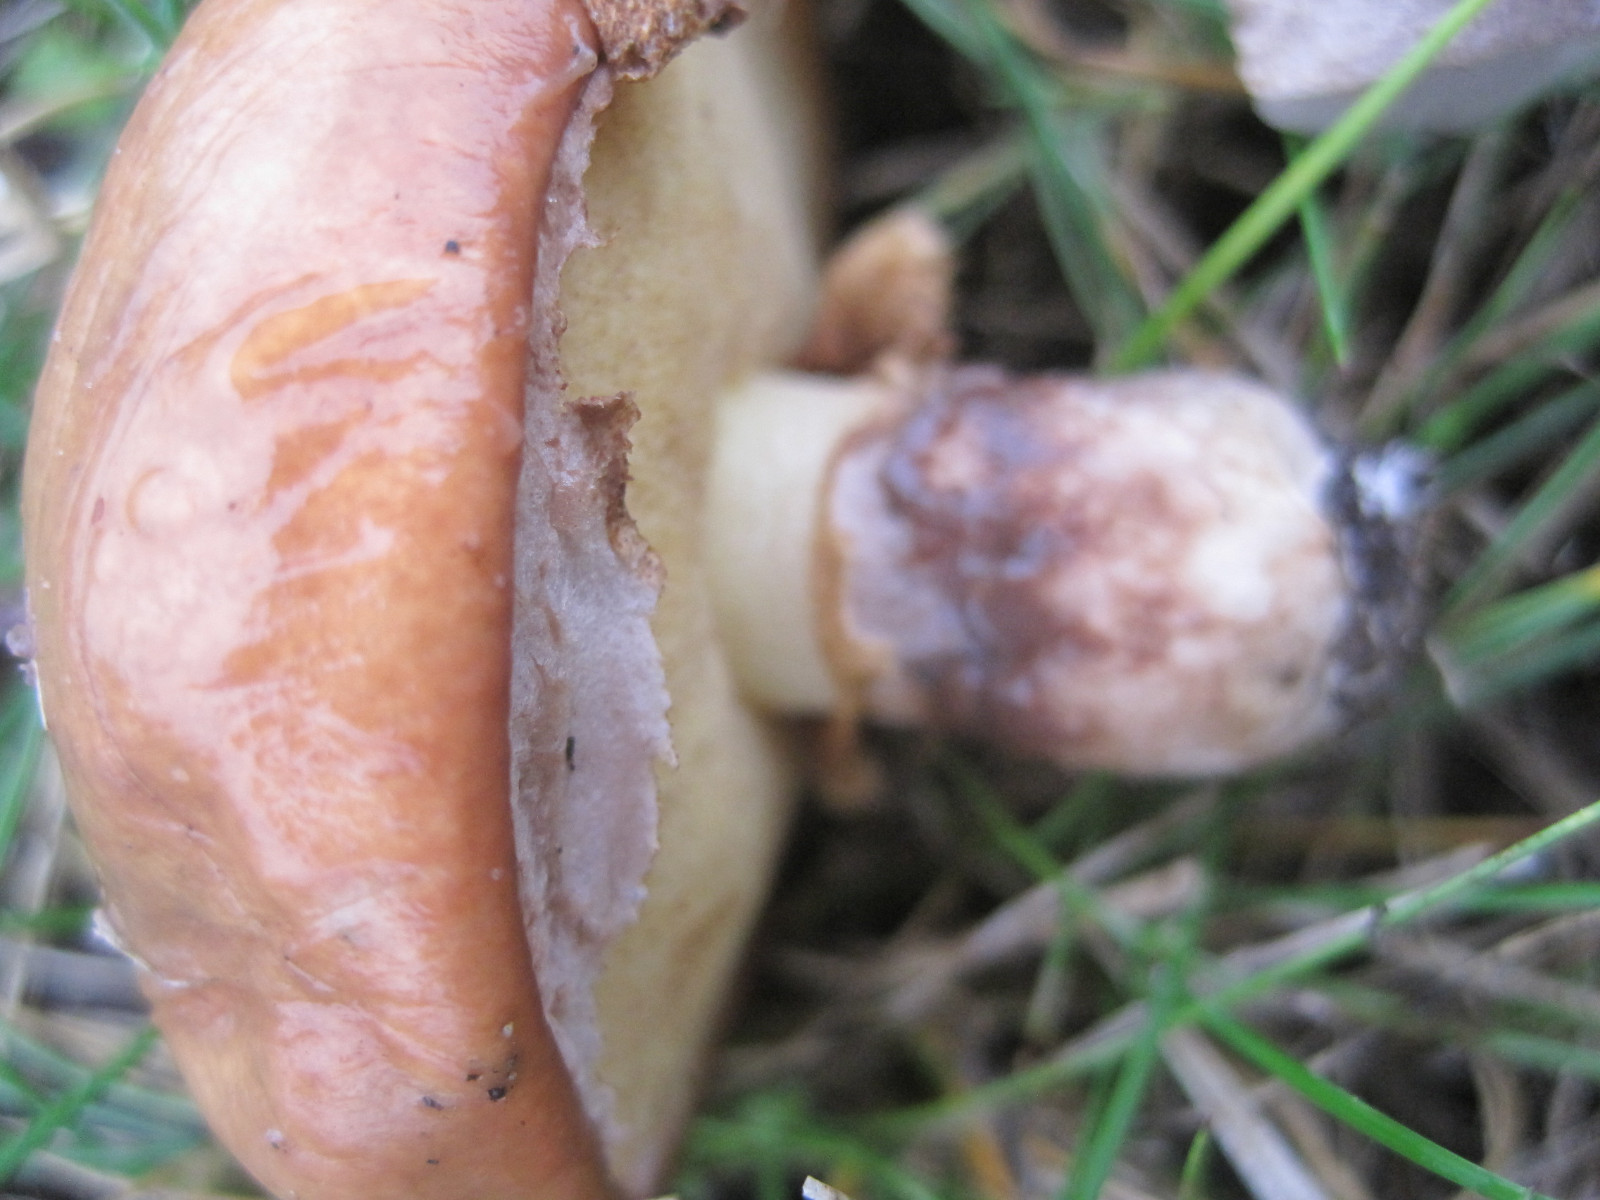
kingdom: Fungi
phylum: Basidiomycota
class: Agaricomycetes
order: Boletales
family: Suillaceae
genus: Suillus
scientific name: Suillus luteus
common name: brungul slimrørhat
